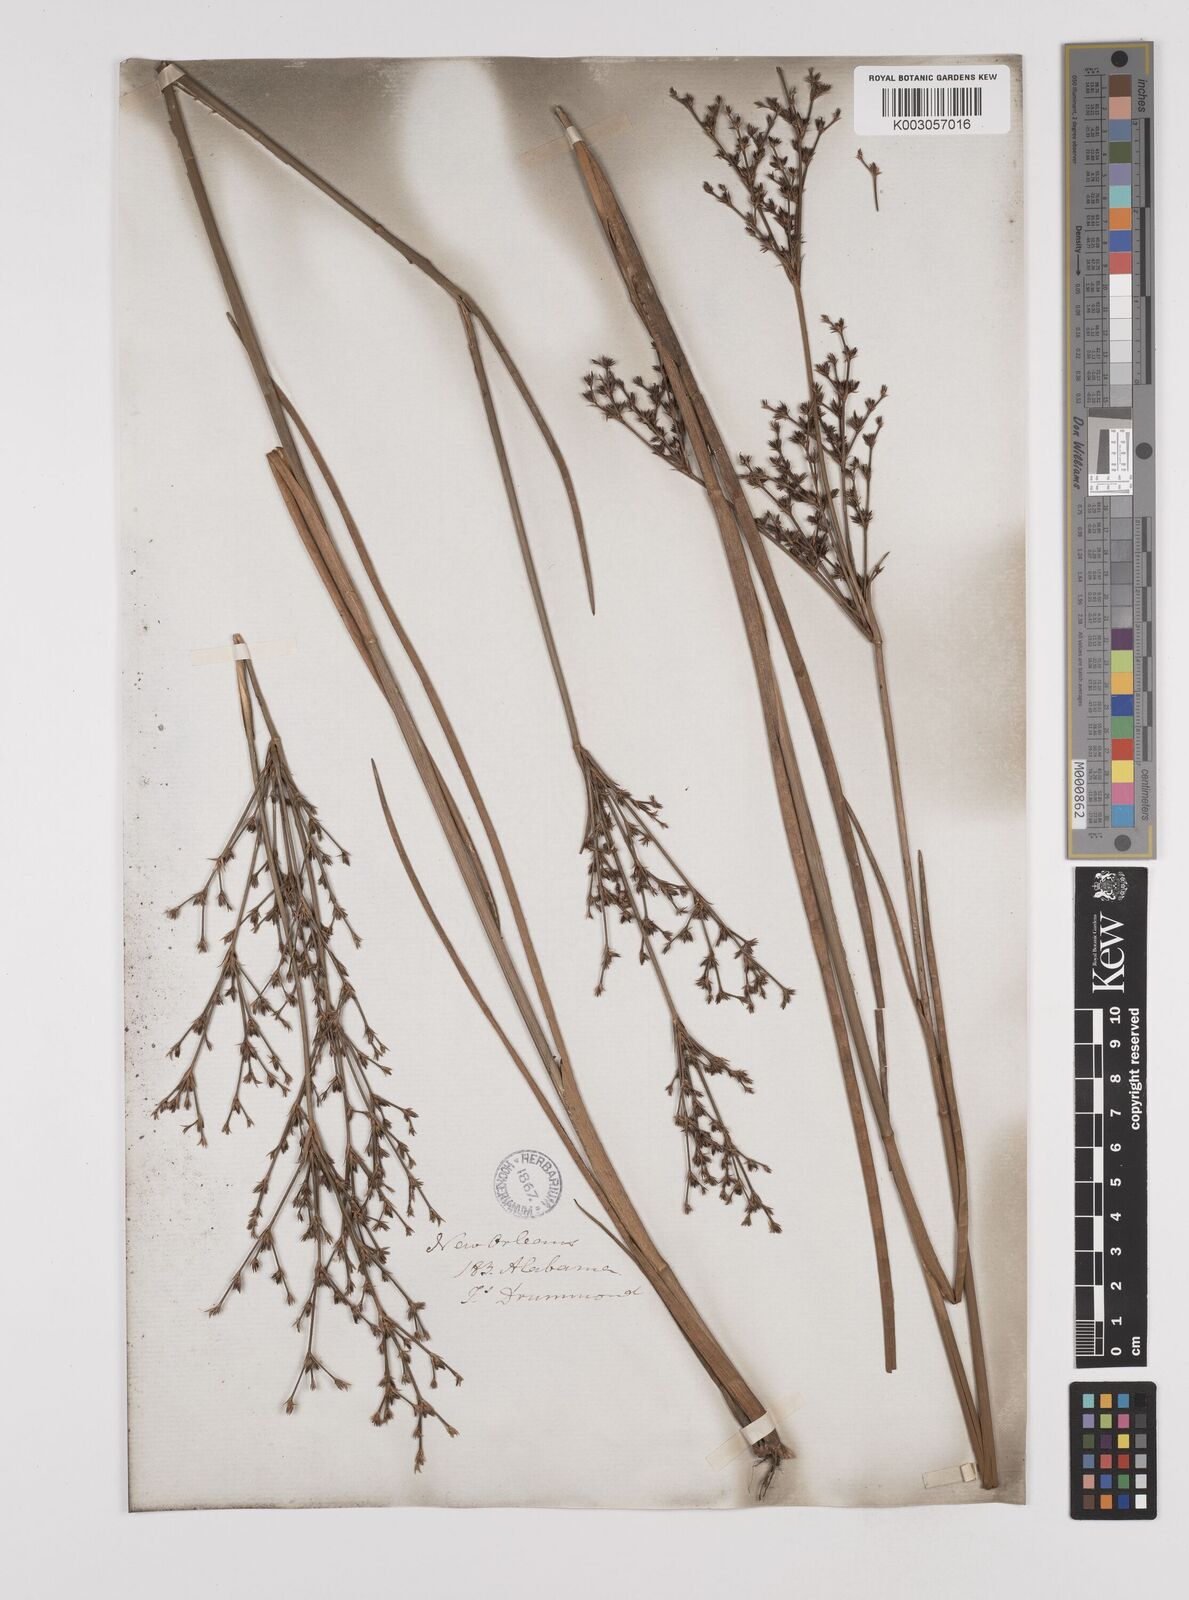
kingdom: Plantae
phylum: Tracheophyta
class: Liliopsida
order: Poales
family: Juncaceae
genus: Juncus
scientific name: Juncus trigonocarpus
